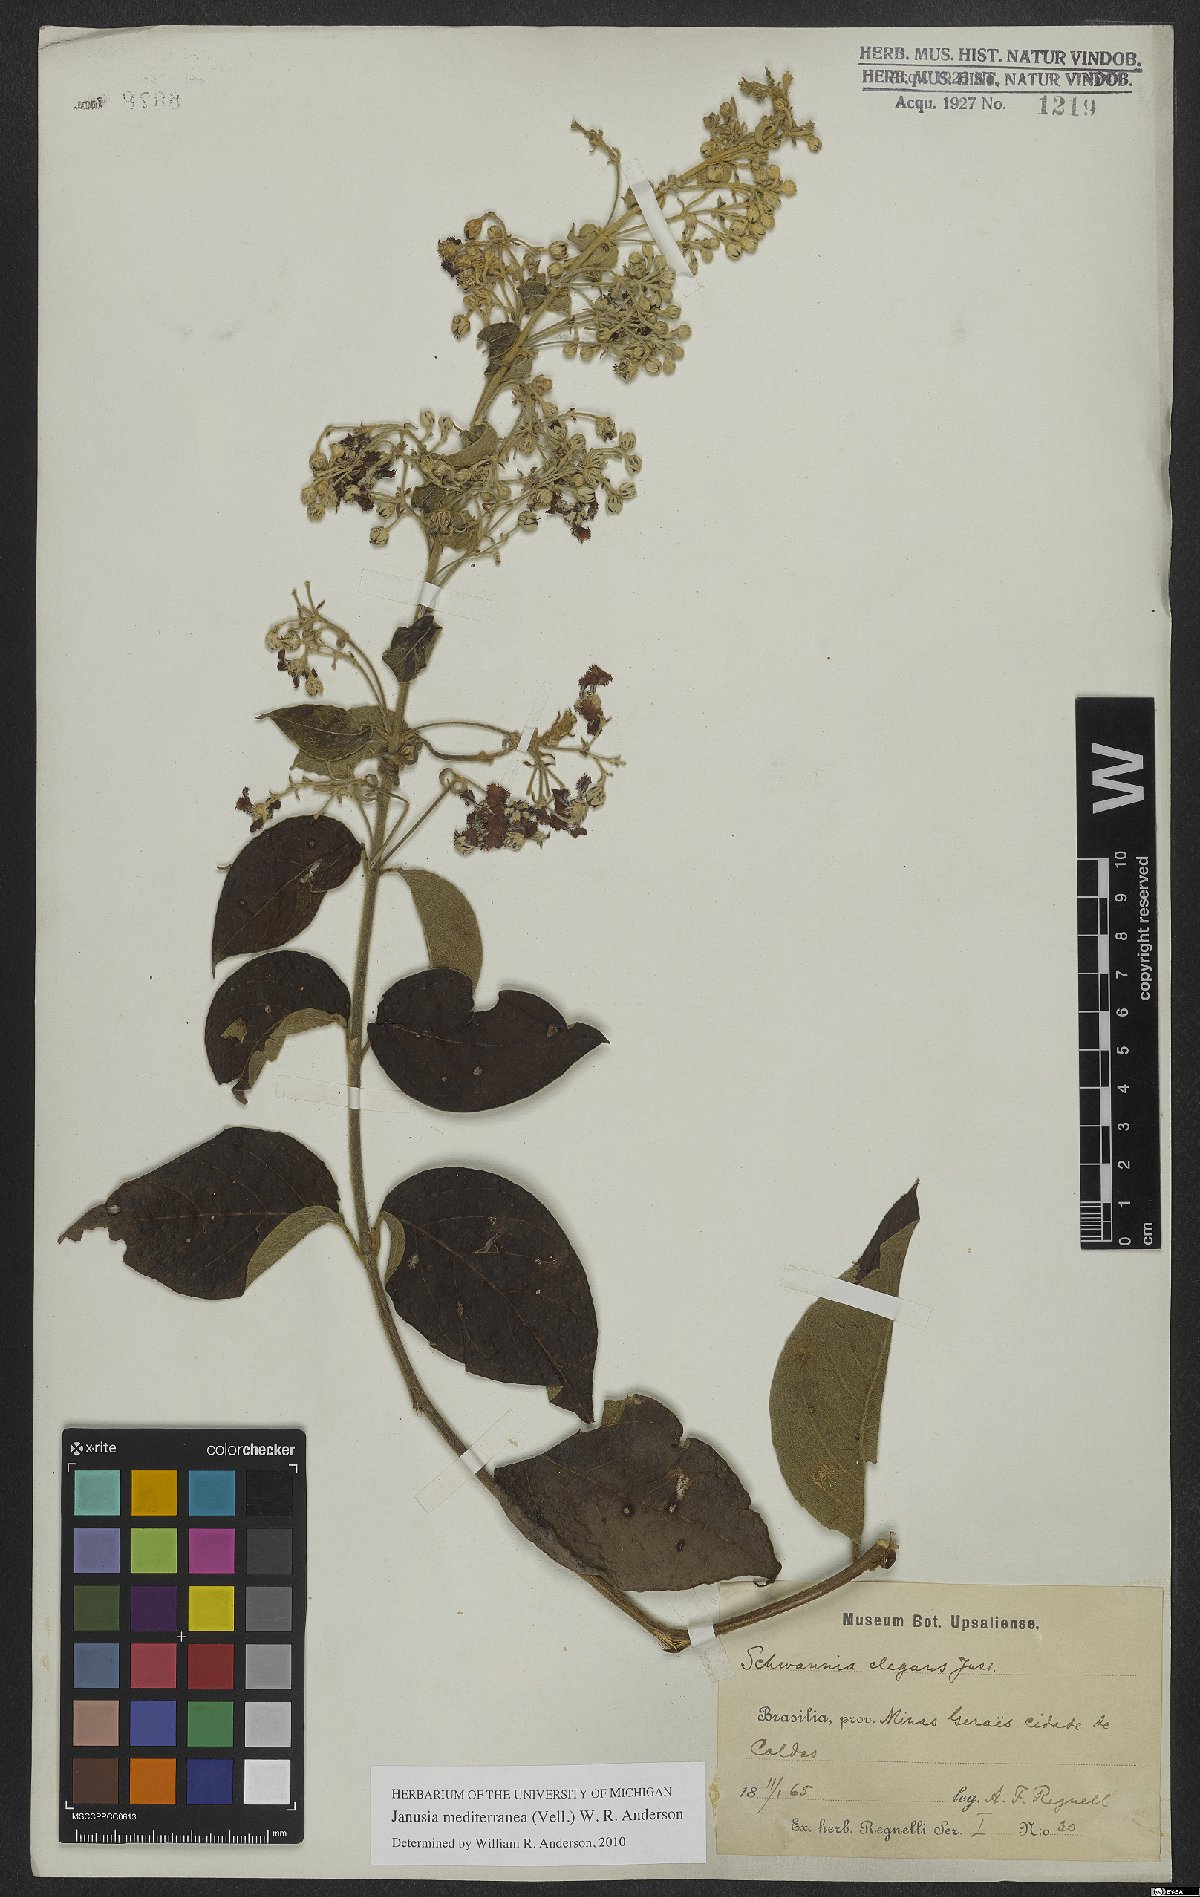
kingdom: Plantae
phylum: Tracheophyta
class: Magnoliopsida
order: Malpighiales
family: Malpighiaceae
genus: Janusia
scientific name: Janusia mediterranea
